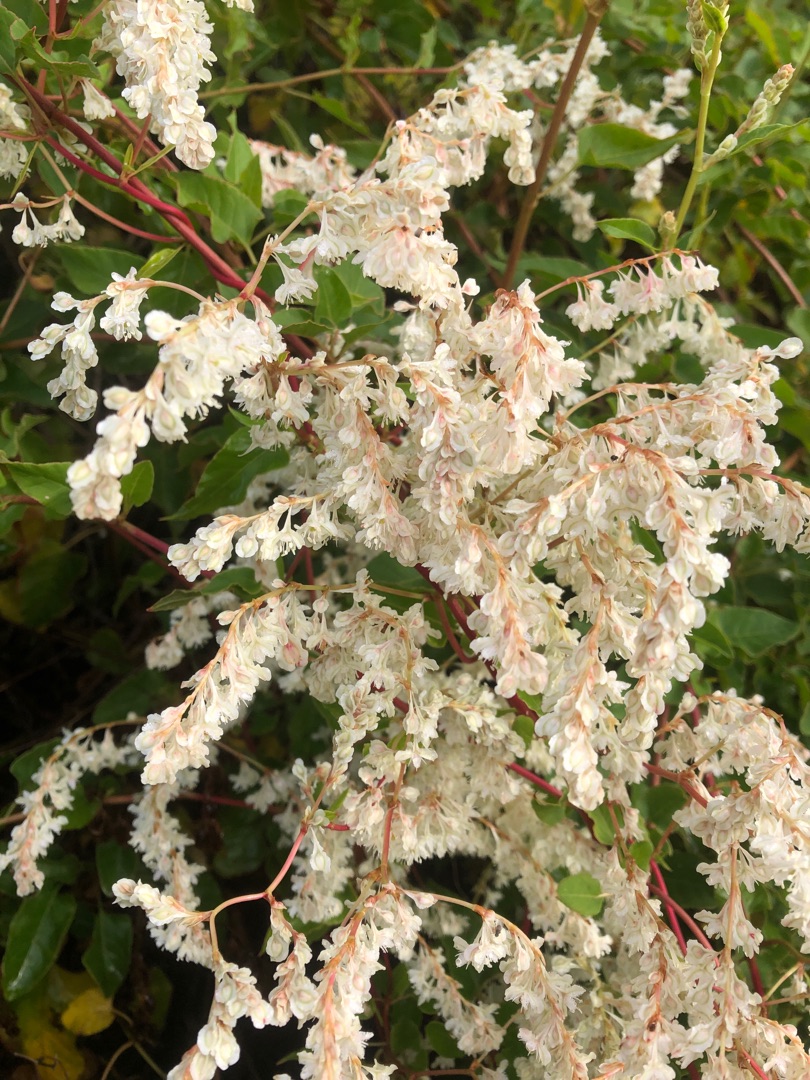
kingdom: Plantae
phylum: Tracheophyta
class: Magnoliopsida
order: Caryophyllales
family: Polygonaceae
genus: Fallopia
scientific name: Fallopia baldschuanica
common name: Sølvregn
